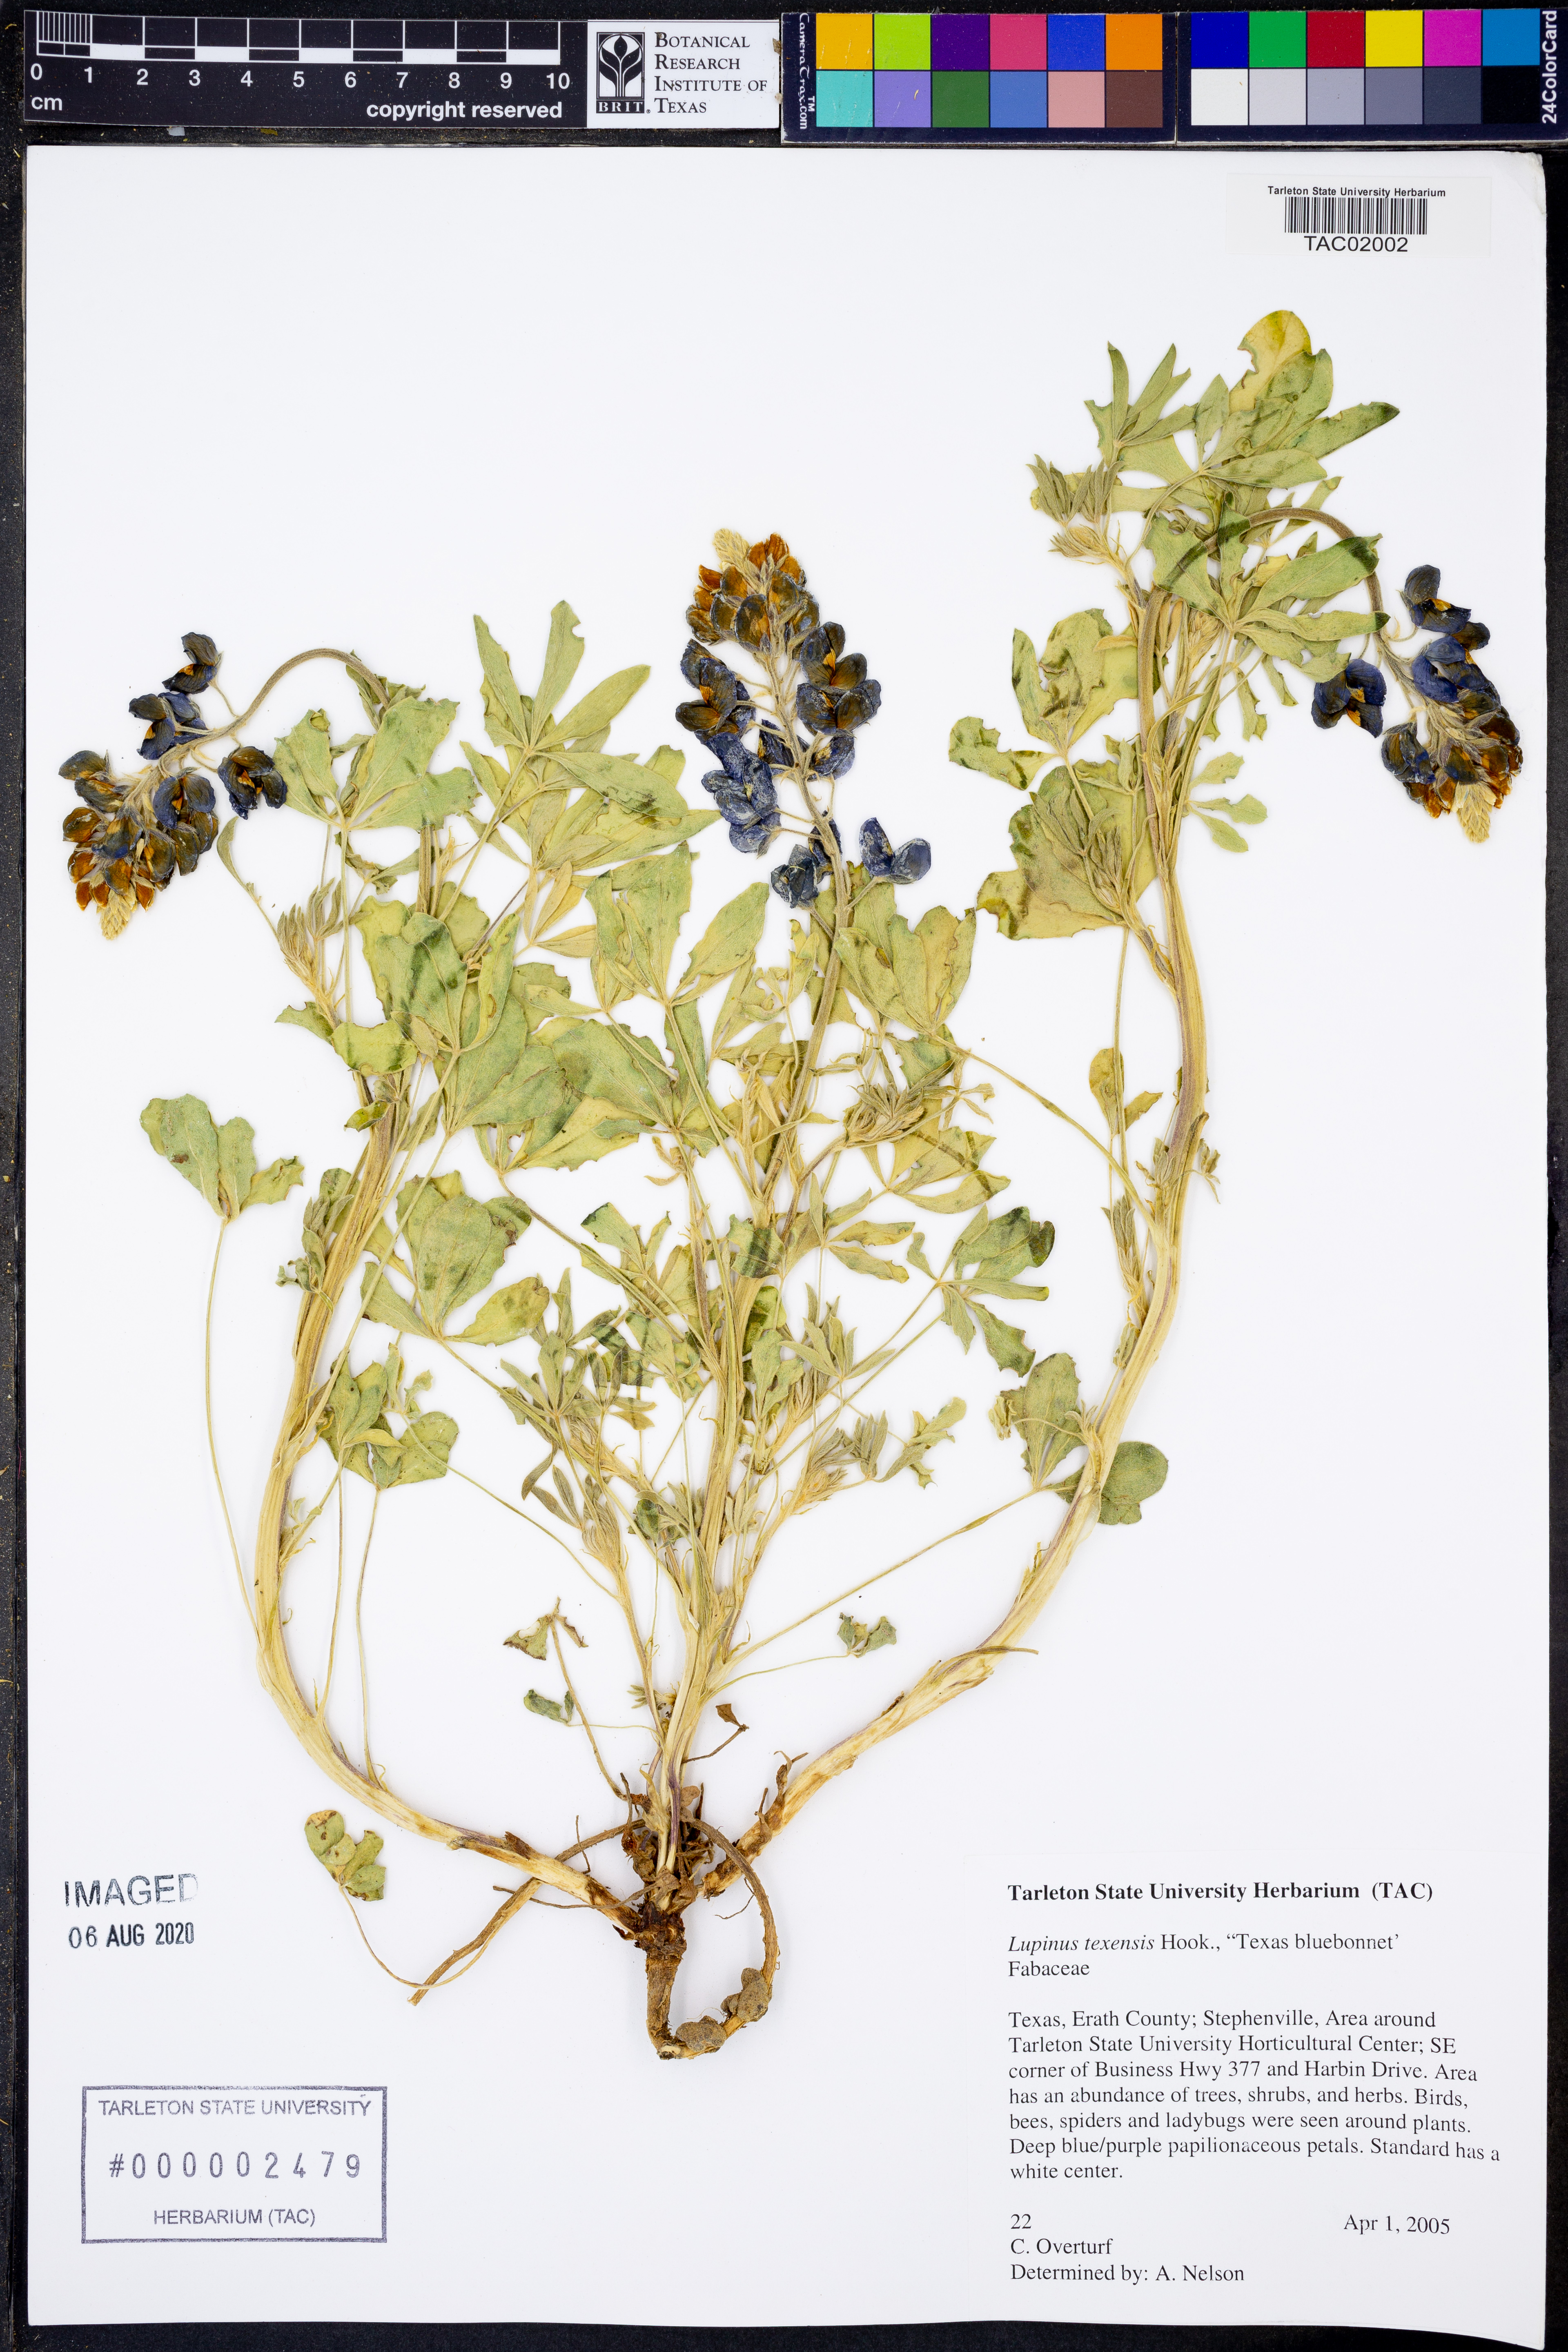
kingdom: Plantae
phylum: Tracheophyta
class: Magnoliopsida
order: Fabales
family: Fabaceae
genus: Lupinus
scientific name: Lupinus texensis
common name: Texas bluebonnet
